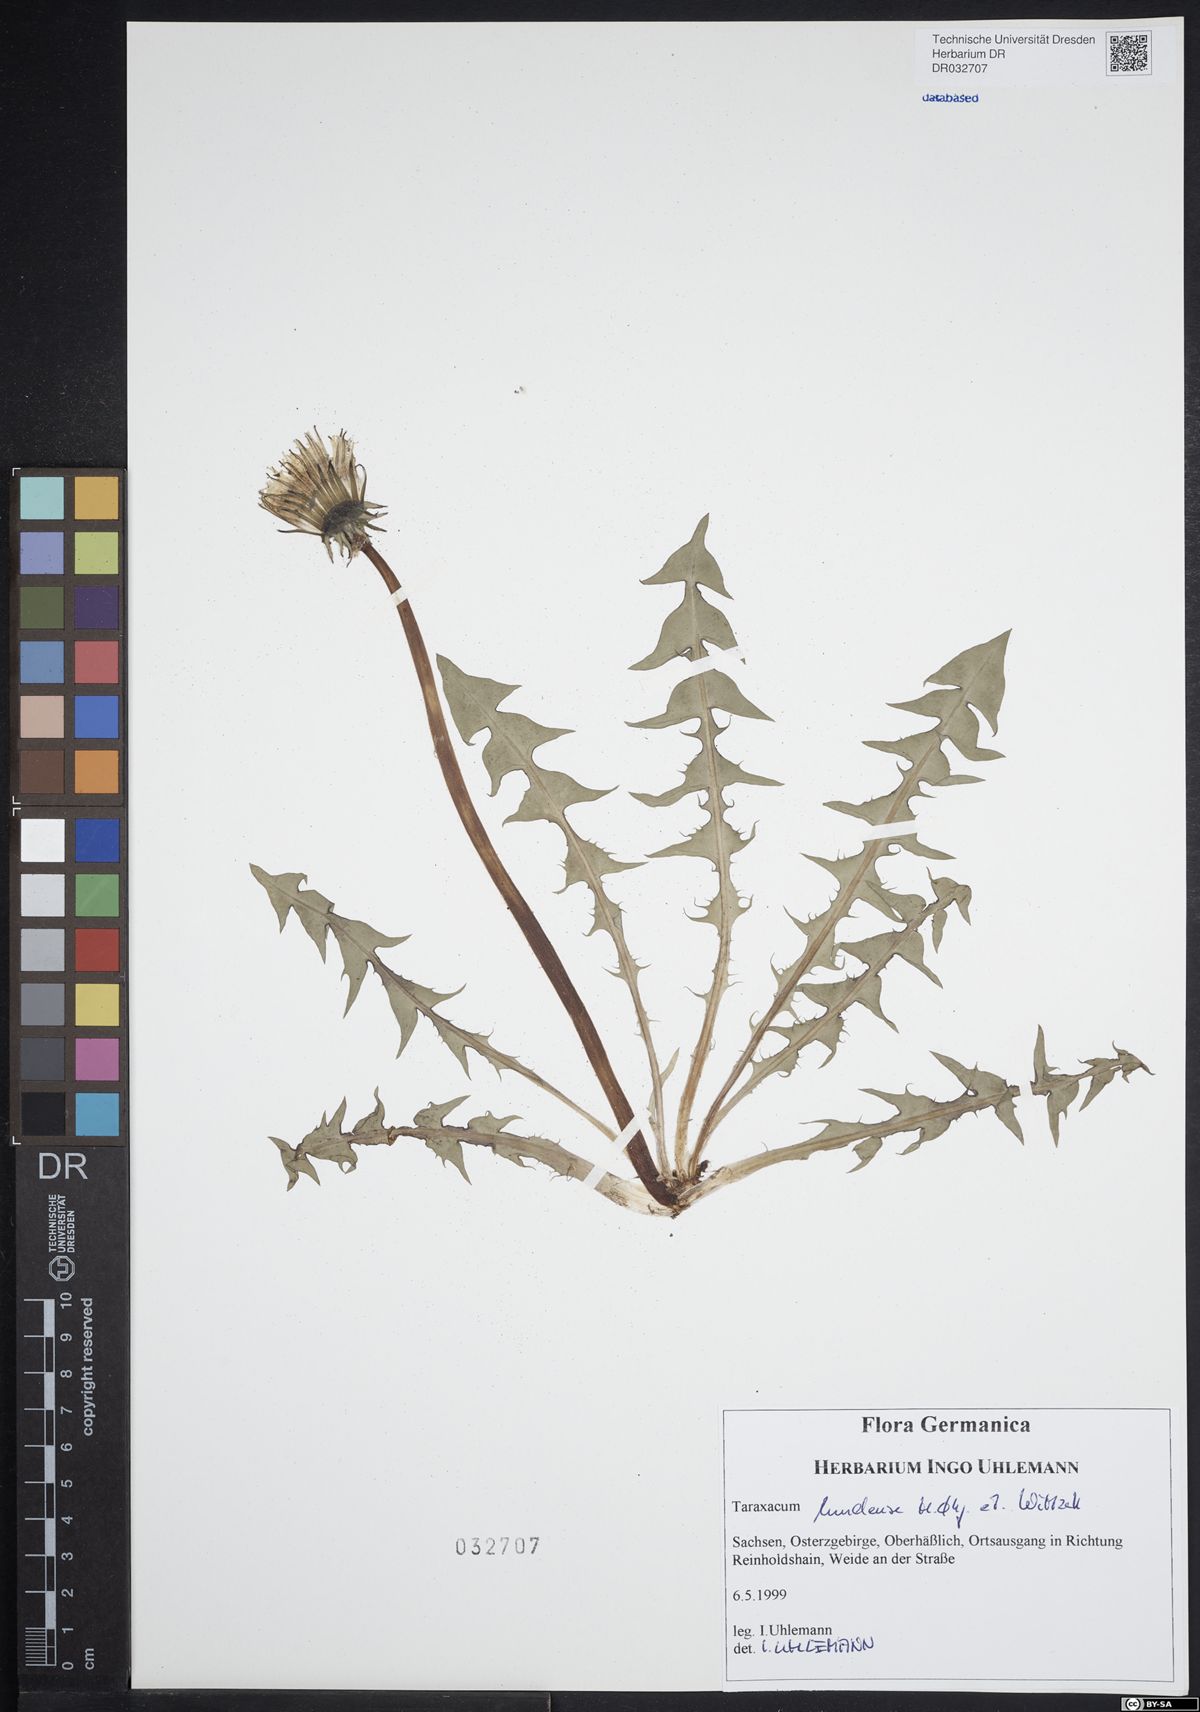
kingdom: Plantae
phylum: Tracheophyta
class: Magnoliopsida
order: Asterales
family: Asteraceae
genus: Taraxacum
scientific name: Taraxacum lundense
